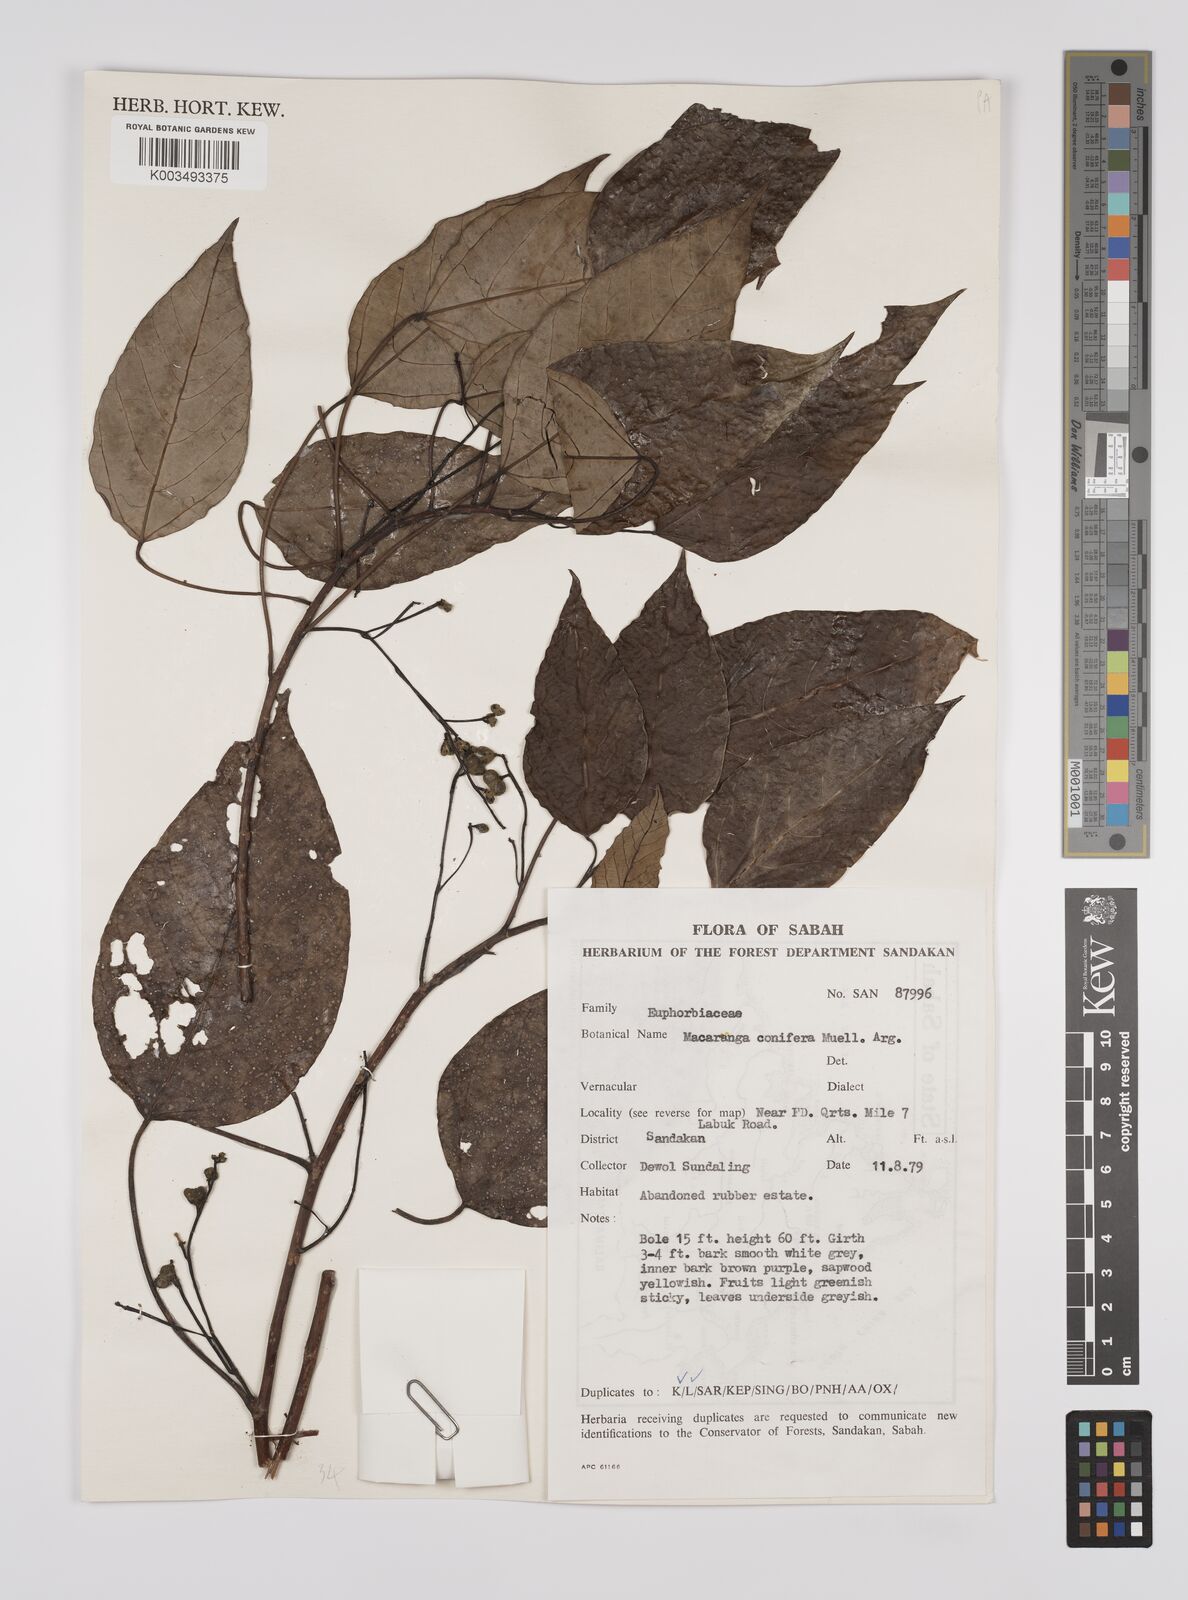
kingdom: Plantae
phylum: Tracheophyta
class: Magnoliopsida
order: Malpighiales
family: Euphorbiaceae
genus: Macaranga
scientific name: Macaranga conifera
